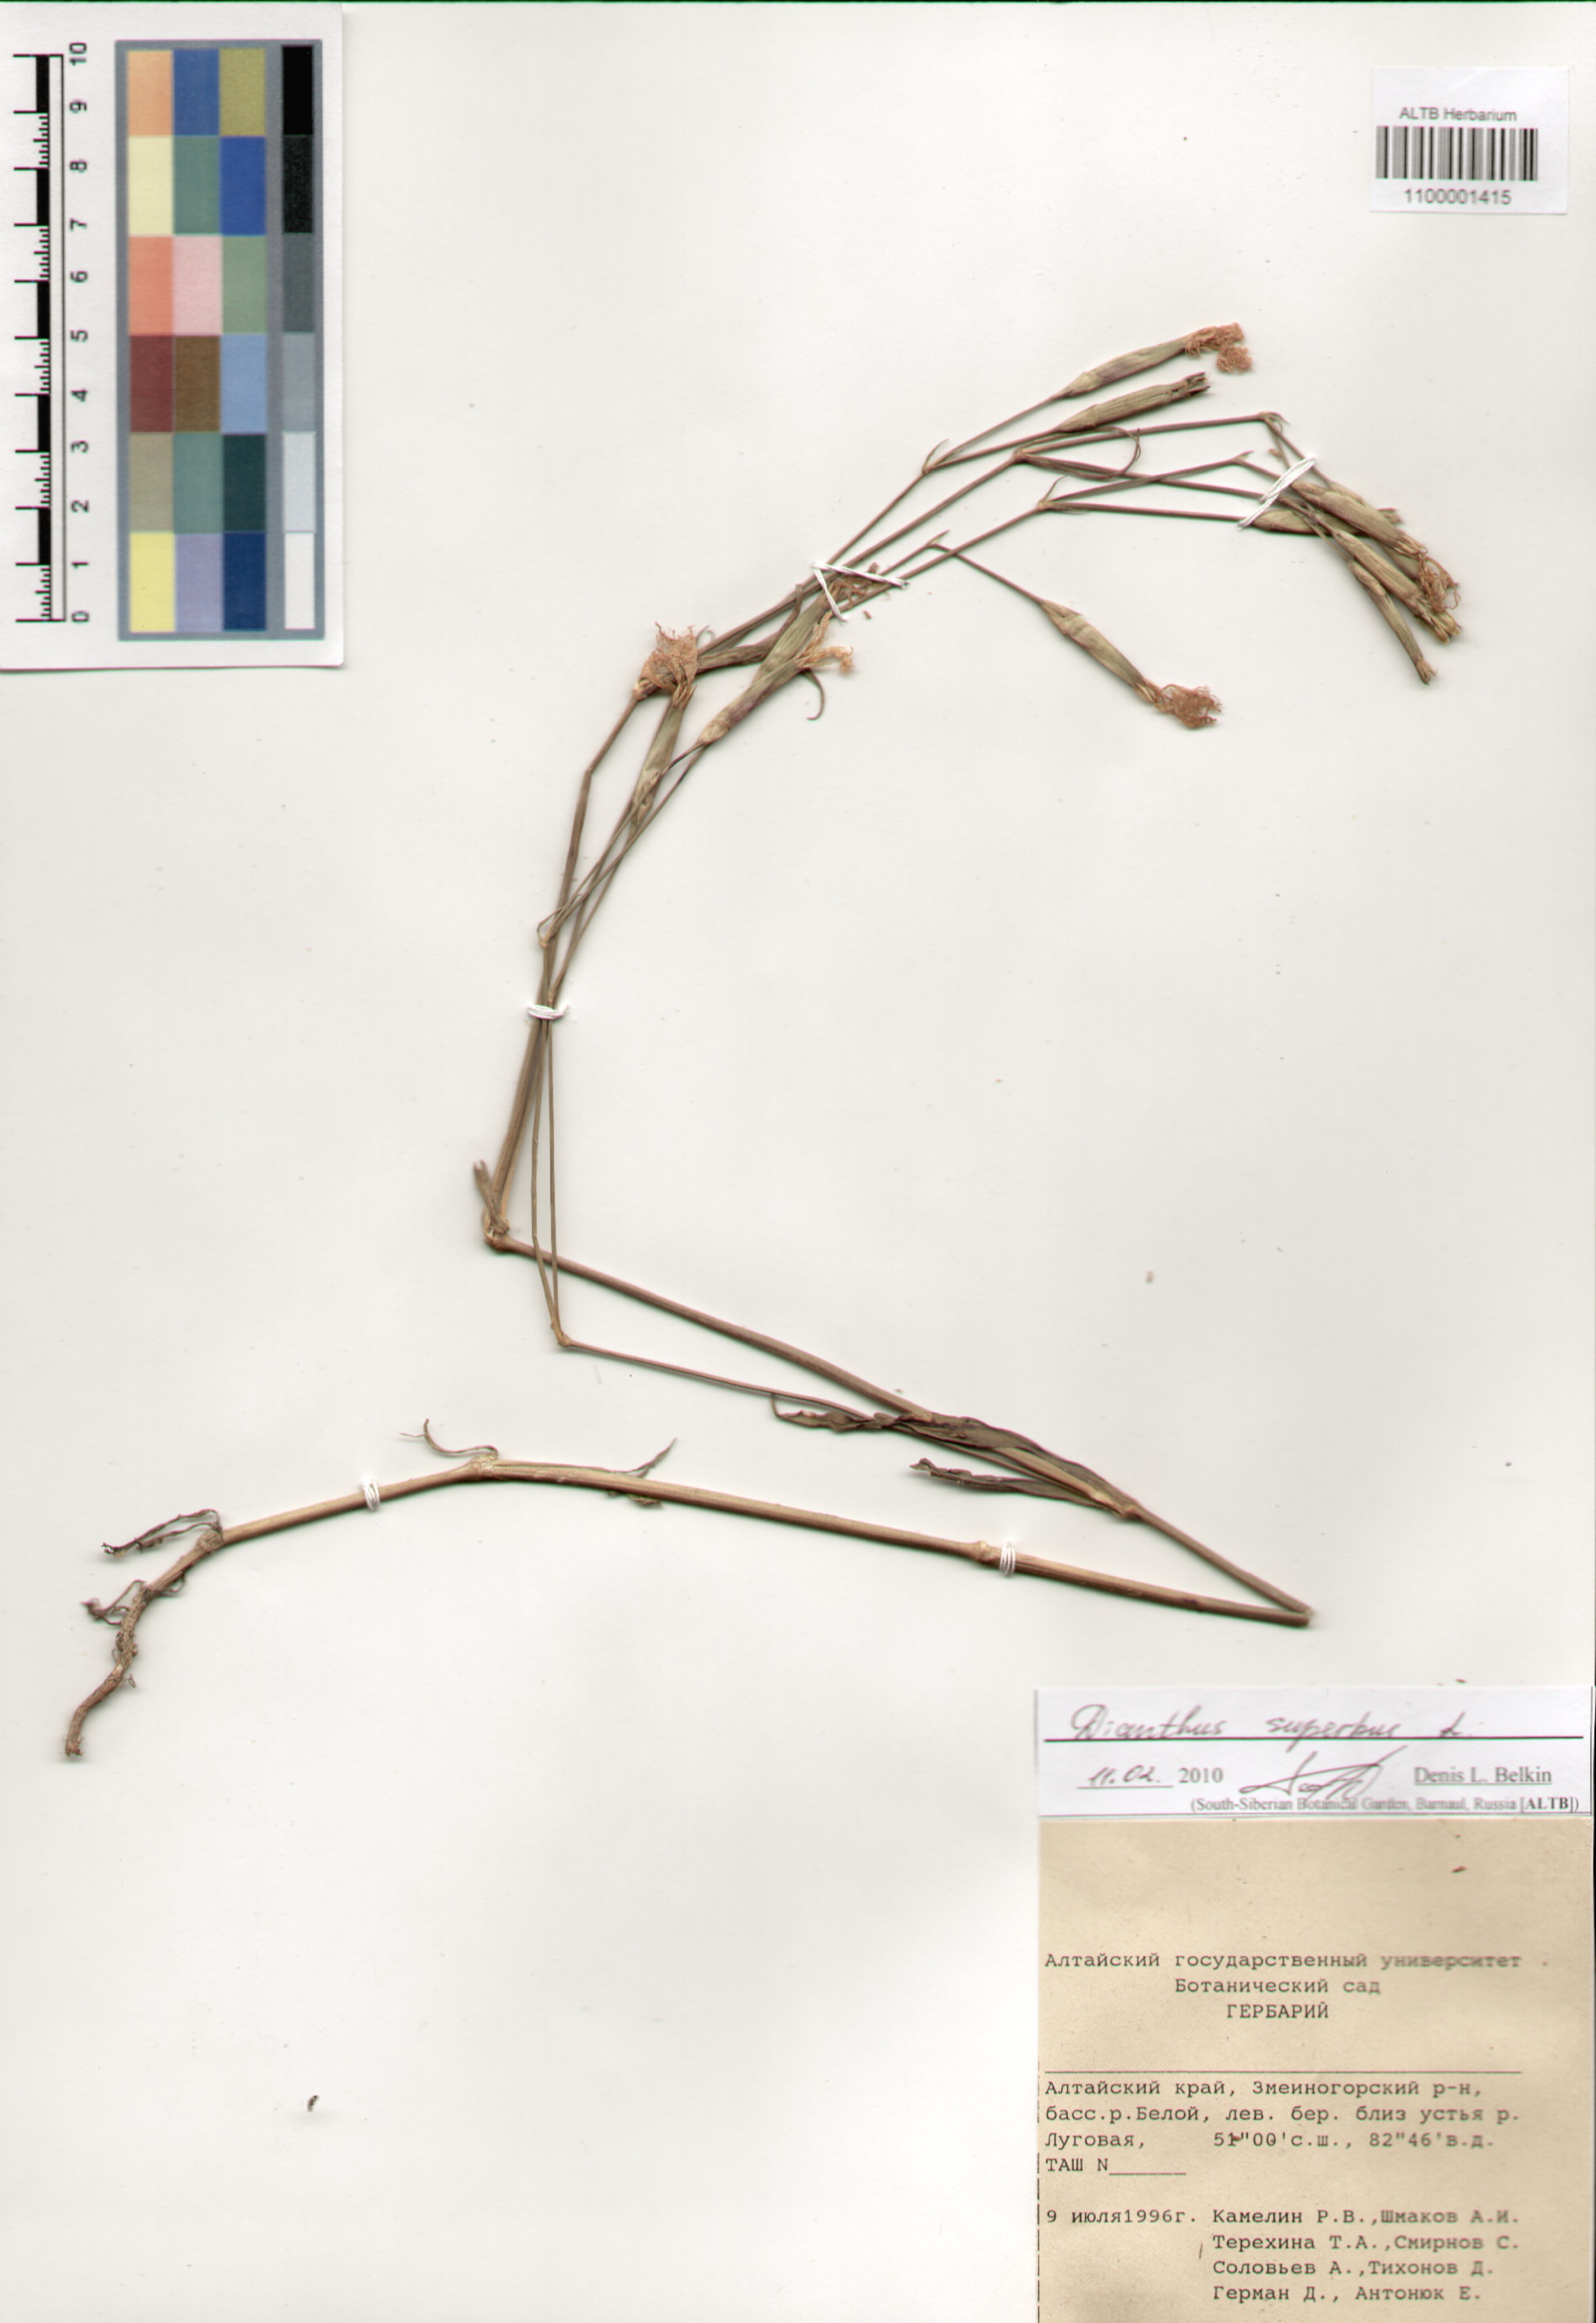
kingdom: Plantae
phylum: Tracheophyta
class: Magnoliopsida
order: Caryophyllales
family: Caryophyllaceae
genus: Dianthus
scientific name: Dianthus superbus
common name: Fringed pink
